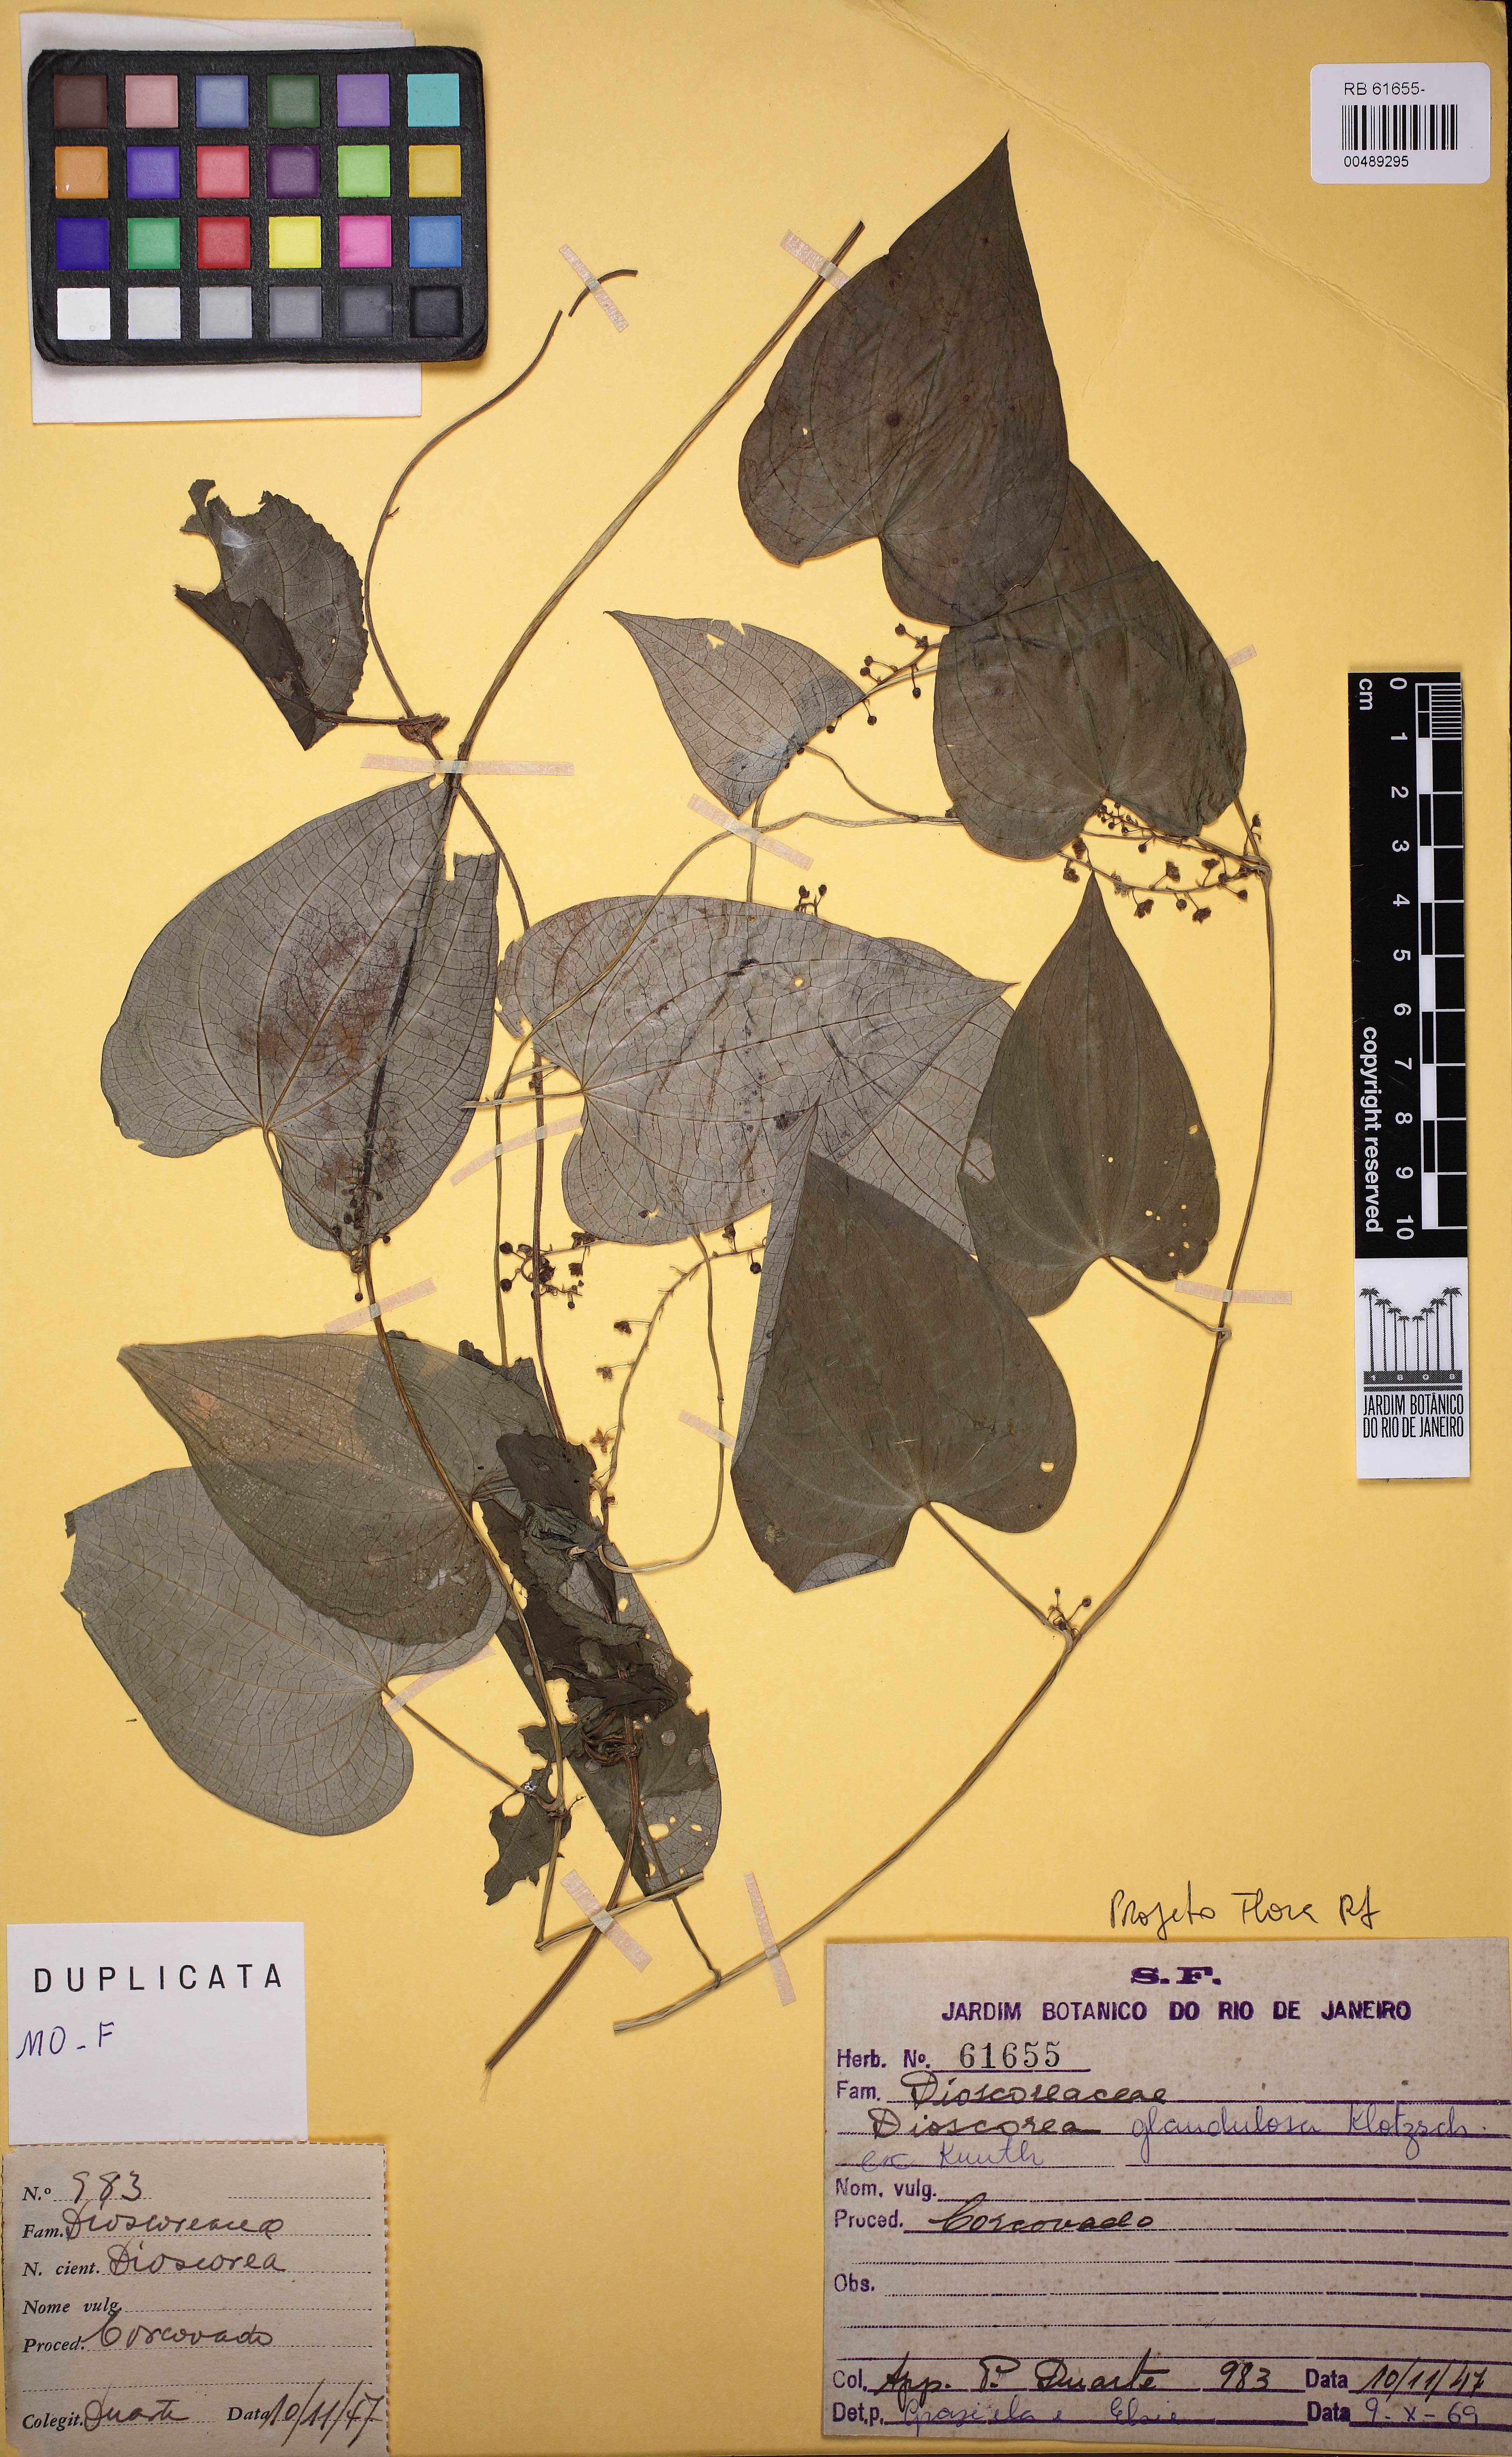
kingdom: Plantae
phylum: Tracheophyta
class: Liliopsida
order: Dioscoreales
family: Dioscoreaceae
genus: Dioscorea
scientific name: Dioscorea piperifolia
